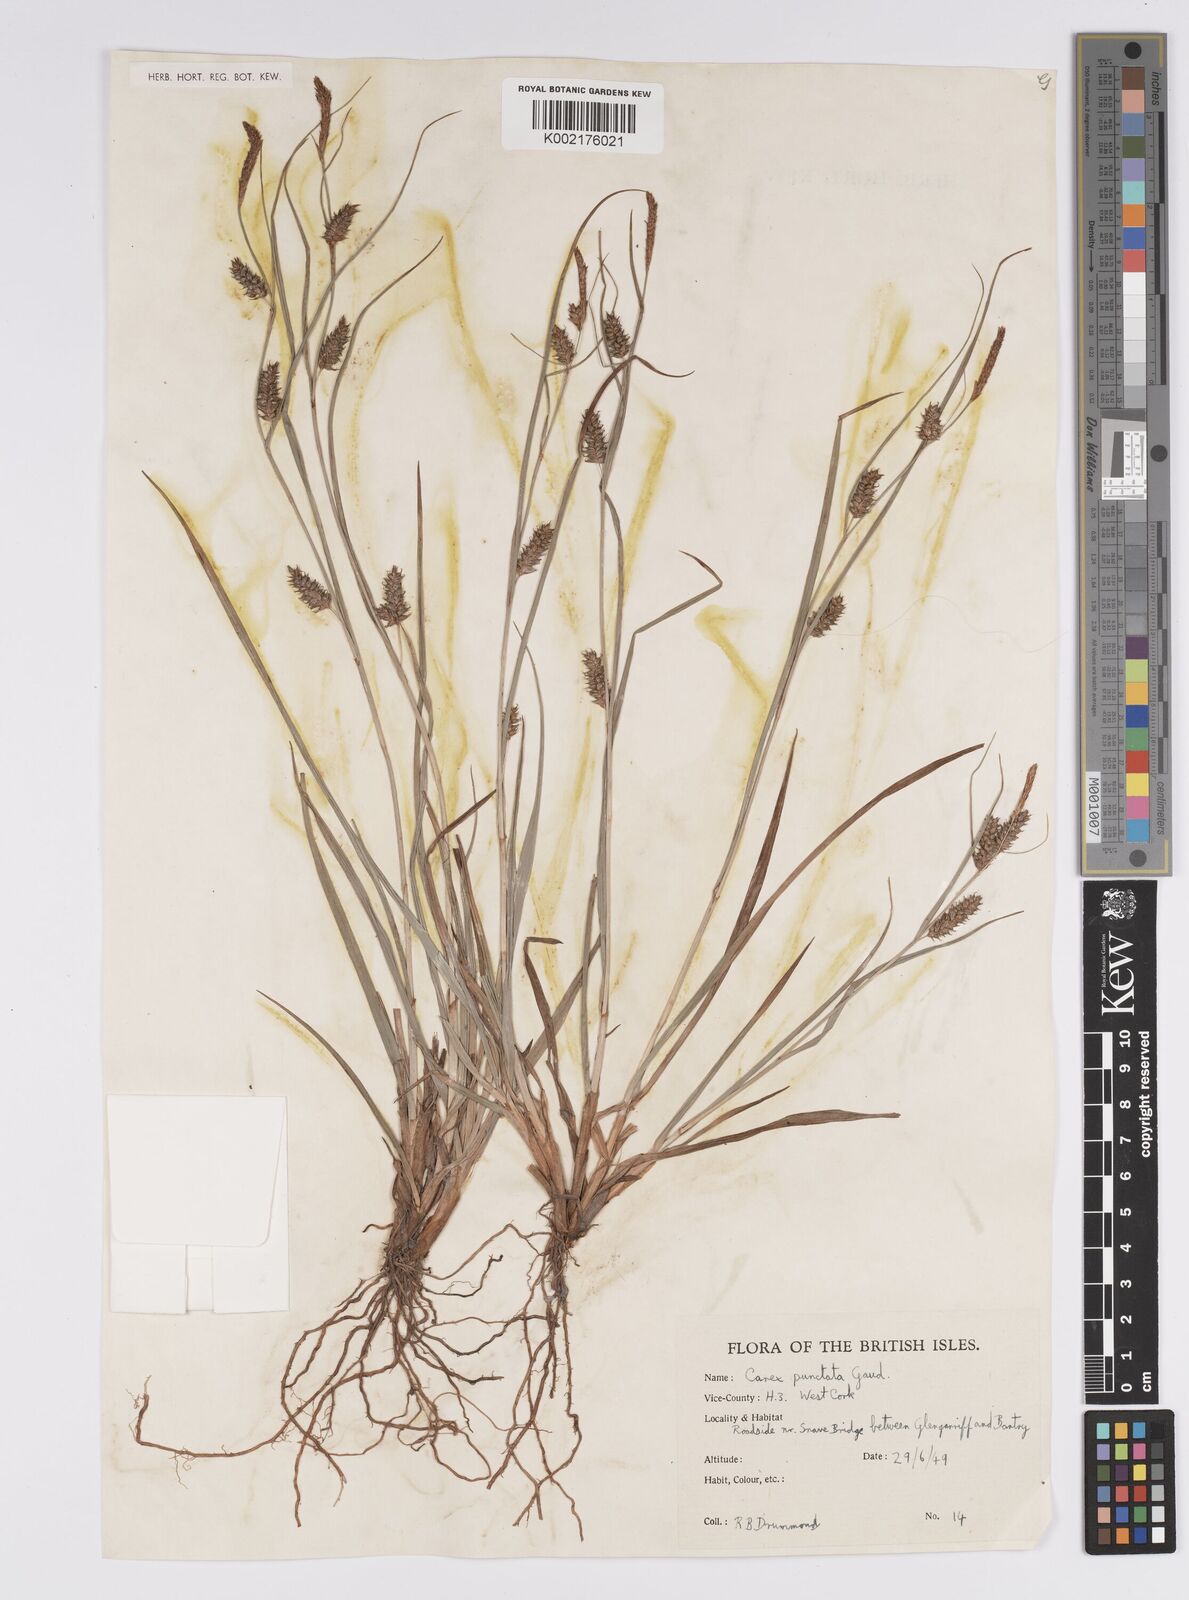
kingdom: Plantae
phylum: Tracheophyta
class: Liliopsida
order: Poales
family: Cyperaceae
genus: Carex
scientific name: Carex punctata
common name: Dotted sedge
